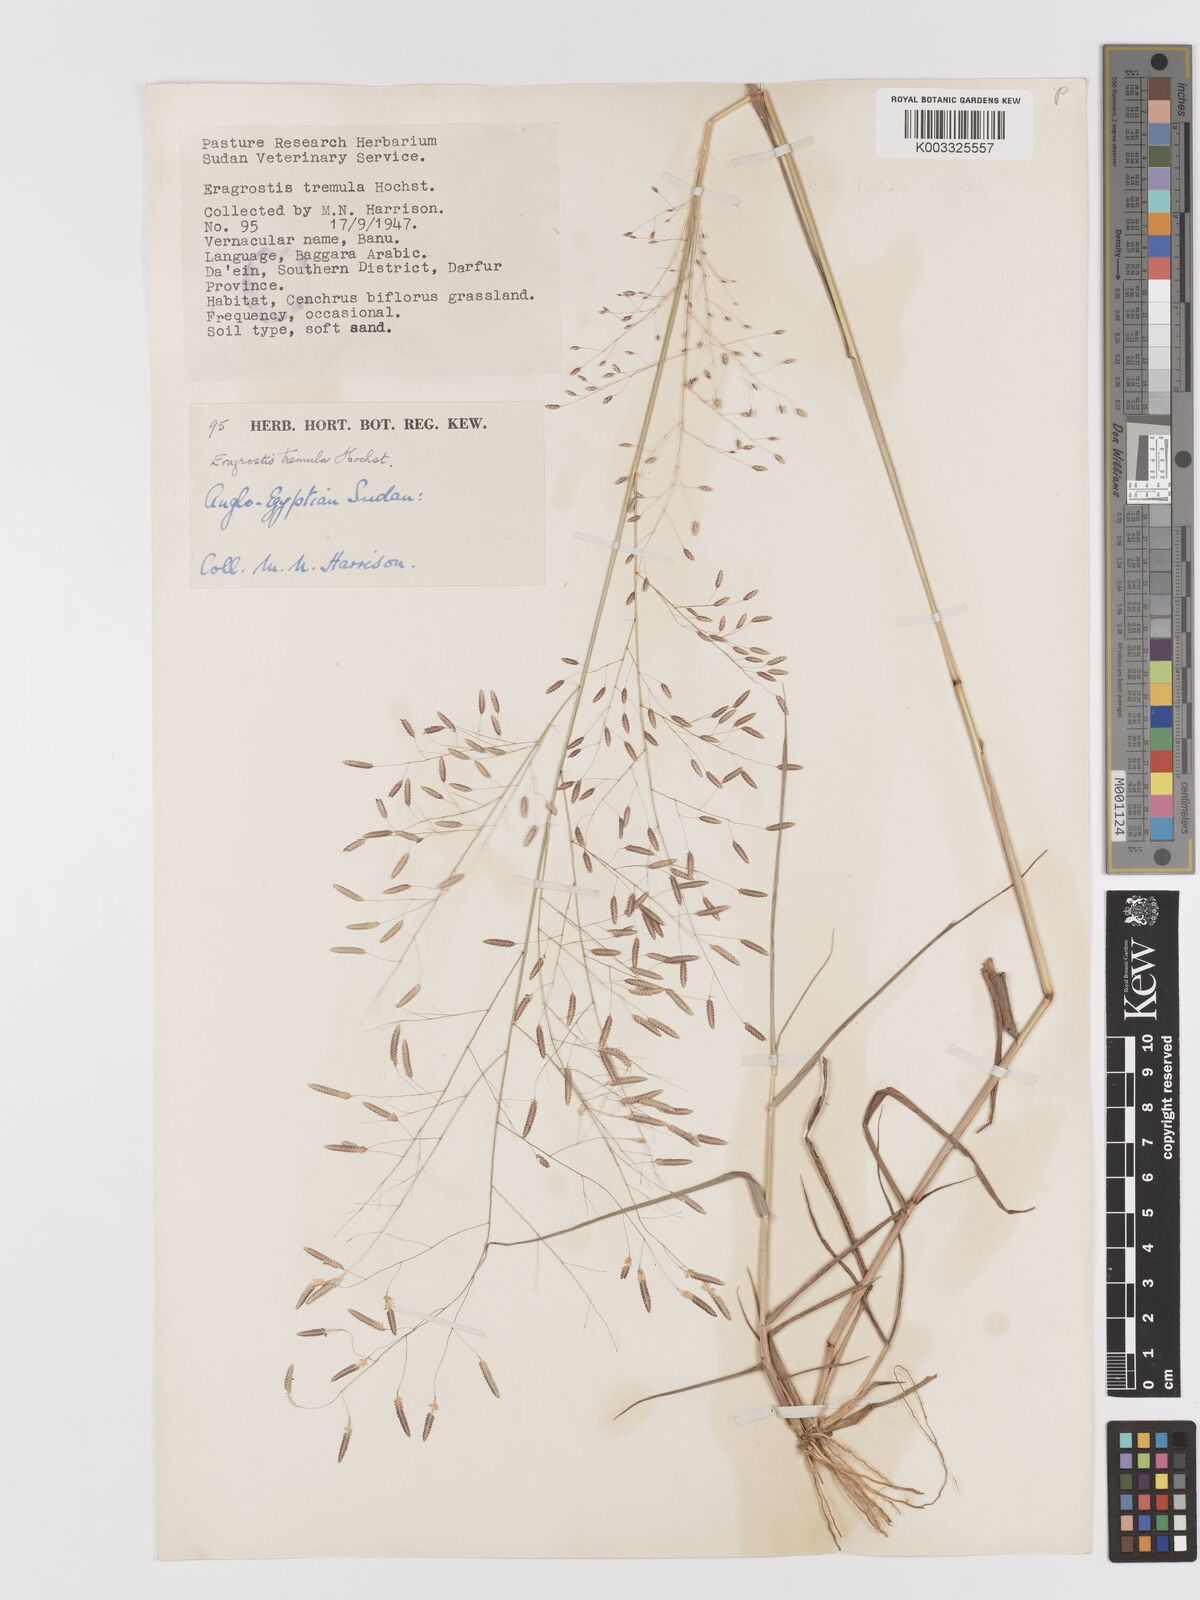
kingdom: Plantae
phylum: Tracheophyta
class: Liliopsida
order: Poales
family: Poaceae
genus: Eragrostis
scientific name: Eragrostis tremula
